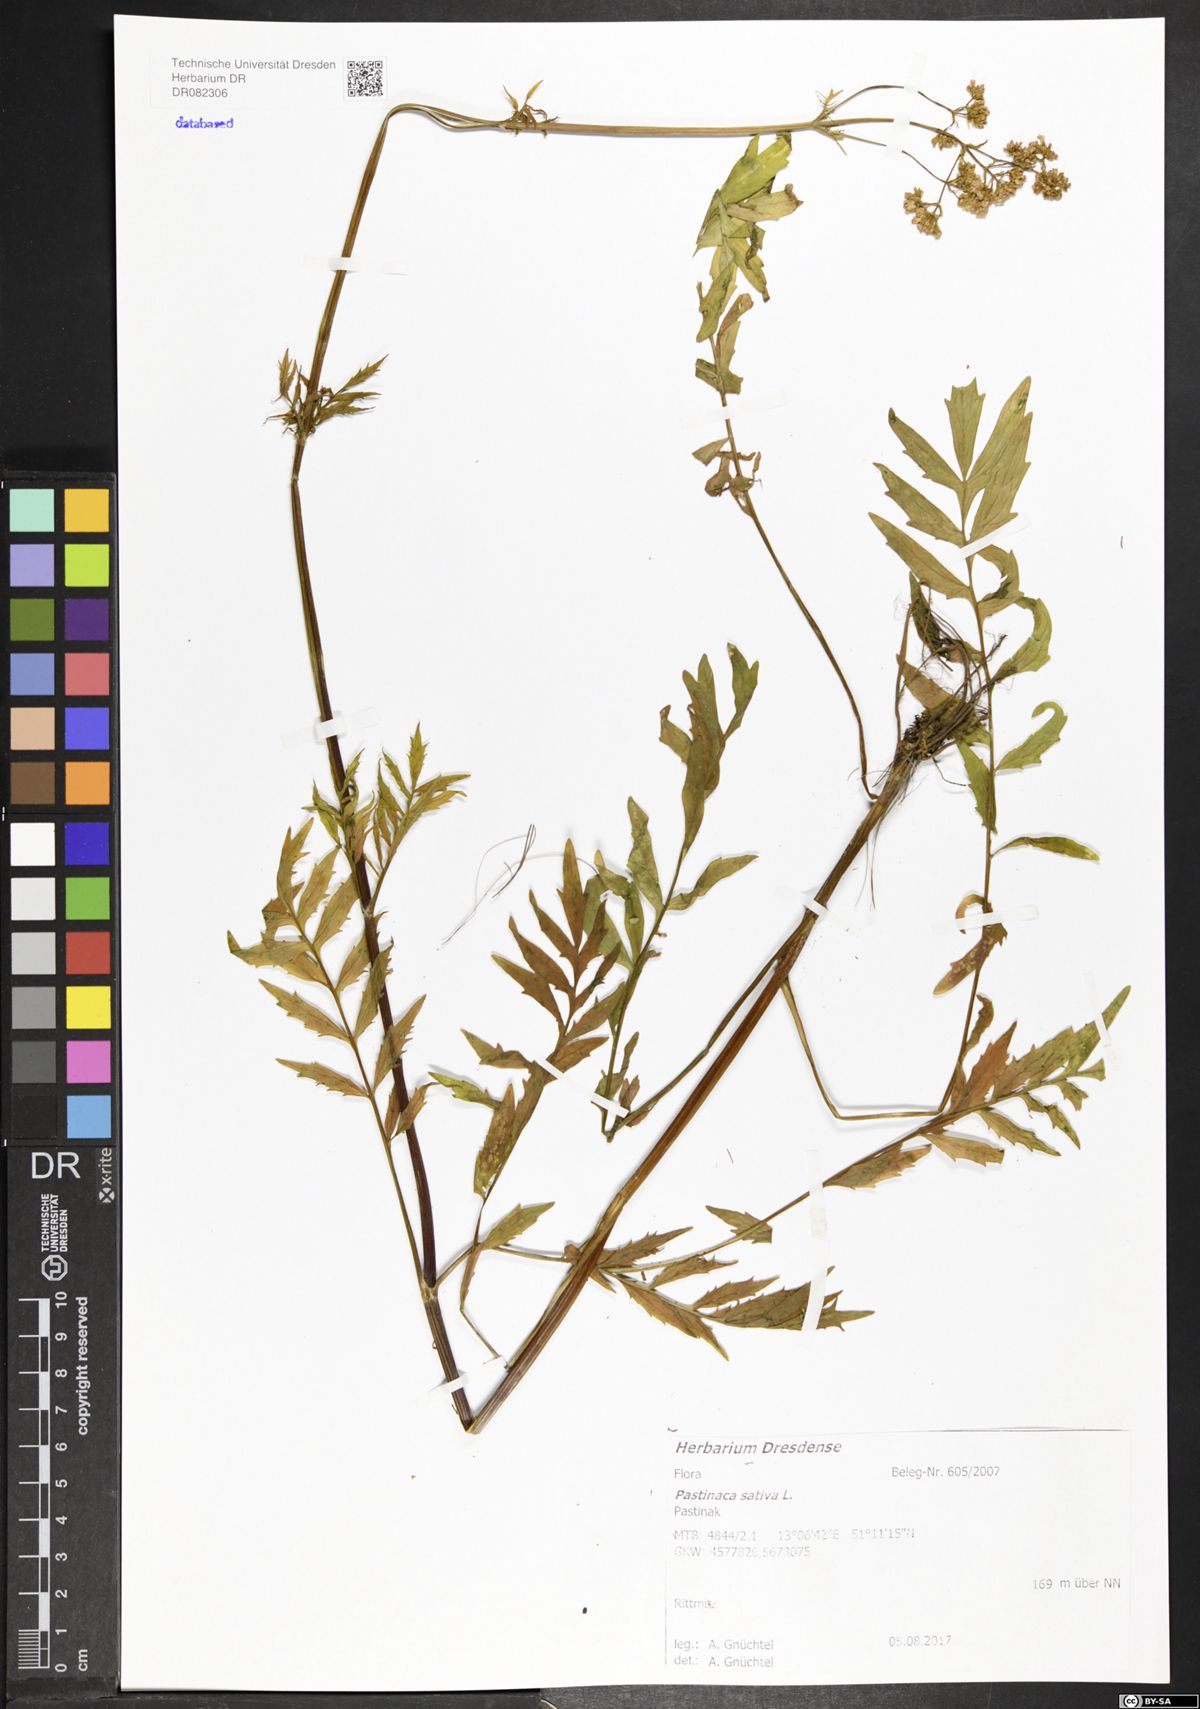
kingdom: Plantae
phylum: Tracheophyta
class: Magnoliopsida
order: Apiales
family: Apiaceae
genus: Pastinaca
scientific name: Pastinaca sativa
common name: Wild parsnip
